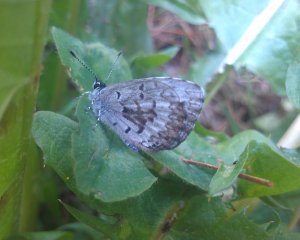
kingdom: Animalia
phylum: Arthropoda
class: Insecta
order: Lepidoptera
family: Lycaenidae
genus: Celastrina
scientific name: Celastrina lucia
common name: Northern Spring Azure
